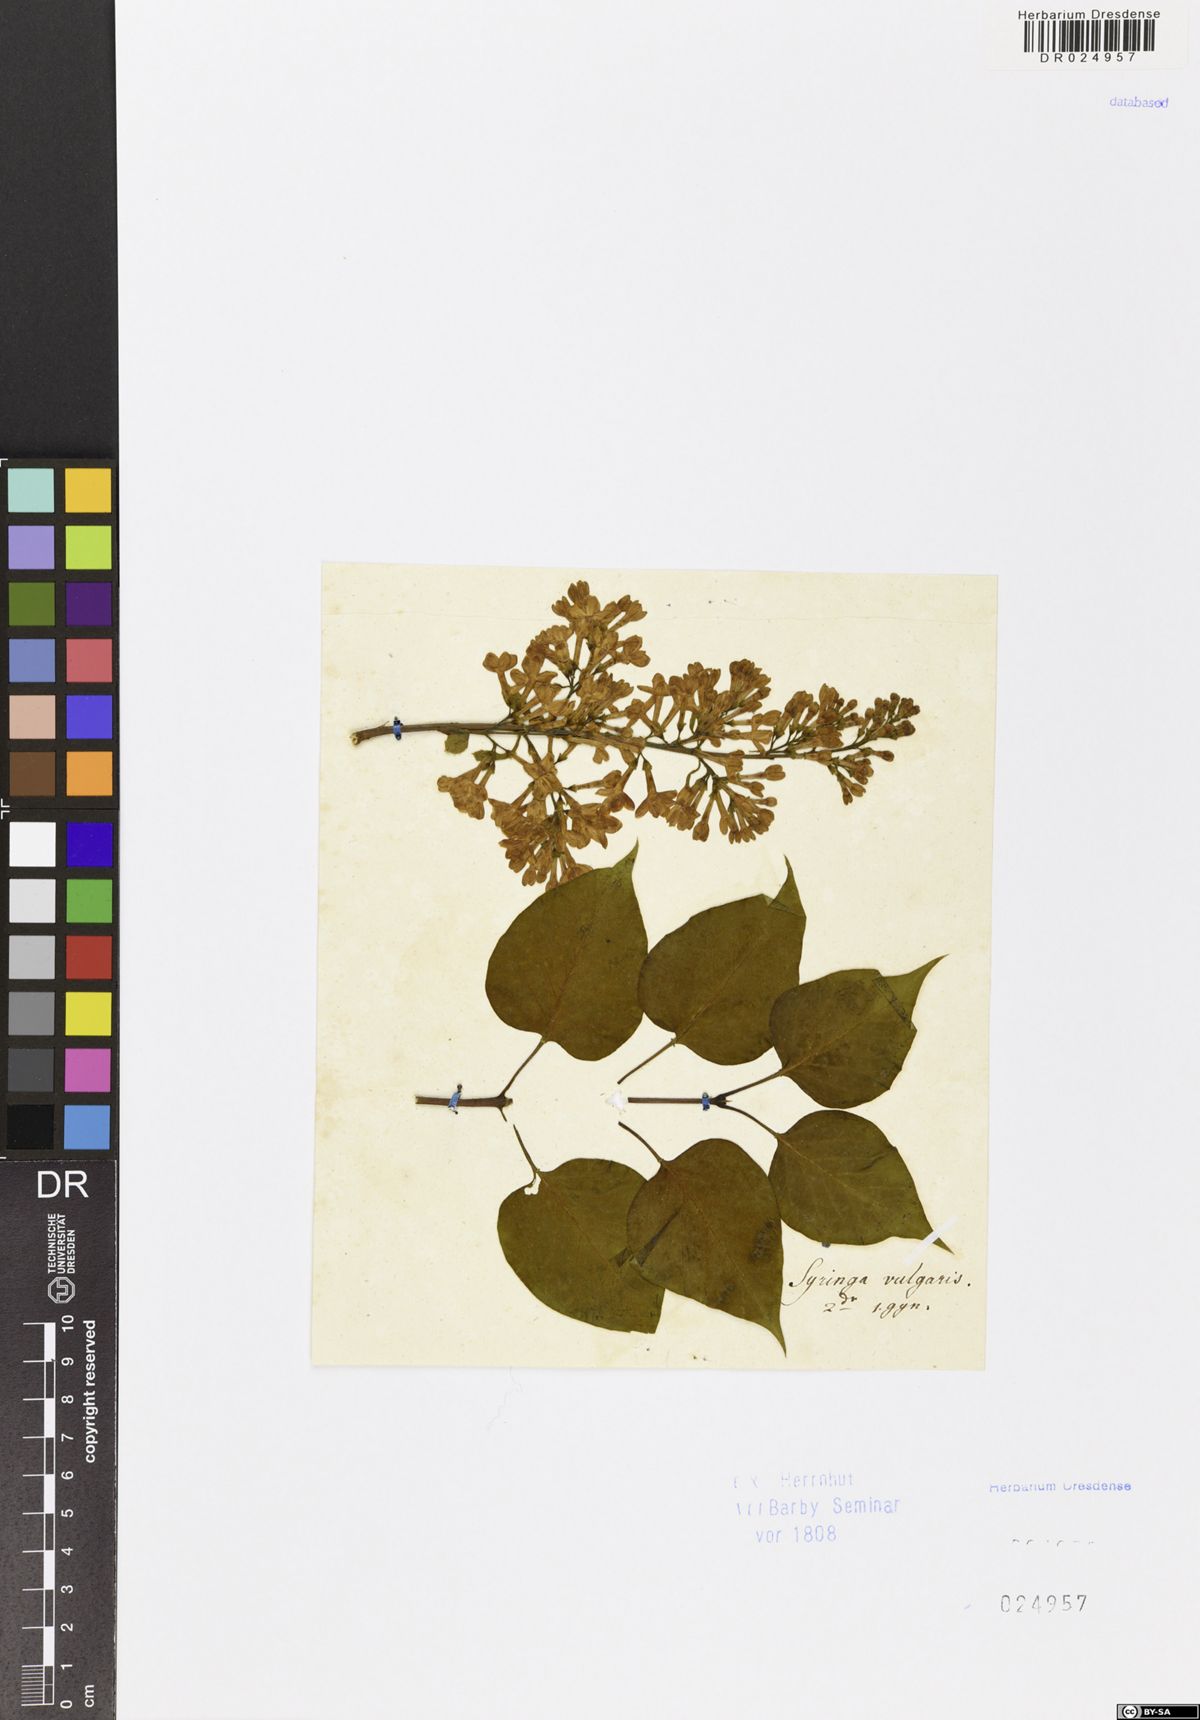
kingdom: Plantae
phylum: Tracheophyta
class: Magnoliopsida
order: Lamiales
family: Oleaceae
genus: Syringa
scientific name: Syringa vulgaris
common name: Common lilac
